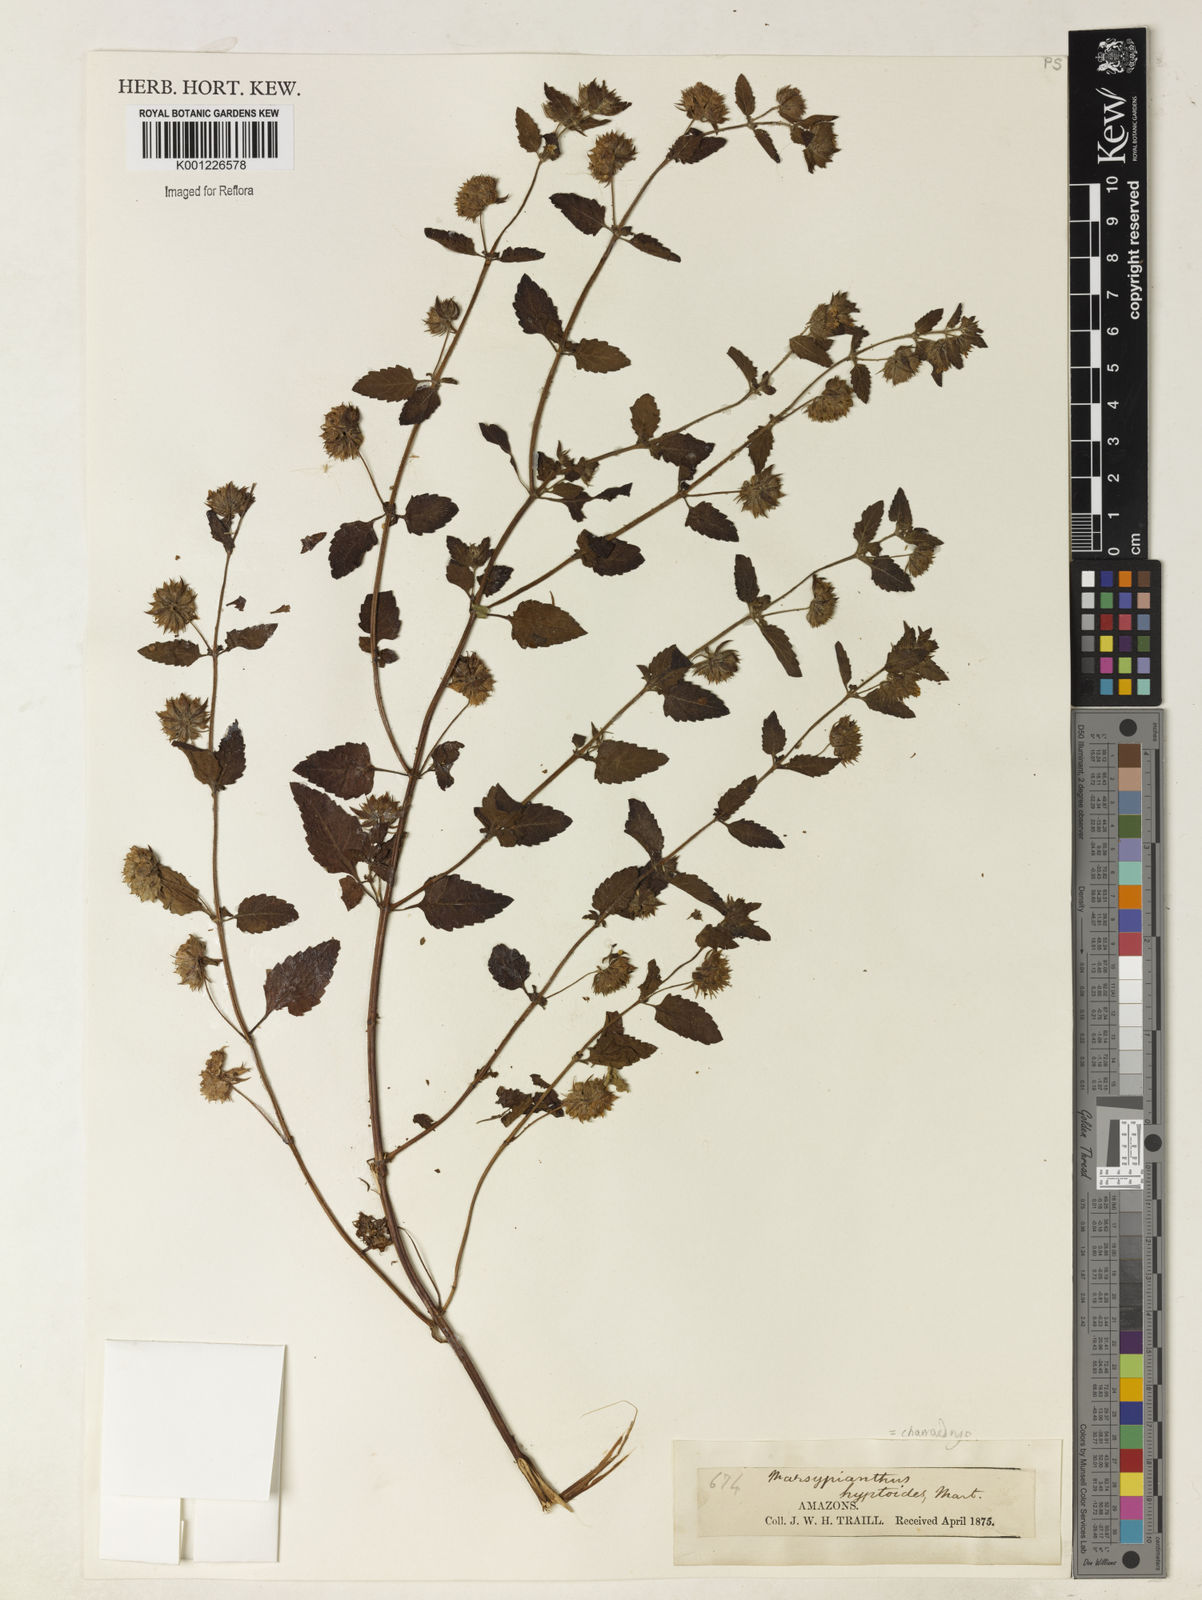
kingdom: Plantae
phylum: Tracheophyta
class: Magnoliopsida
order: Lamiales
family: Lamiaceae
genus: Marsypianthes
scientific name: Marsypianthes chamaedrys
